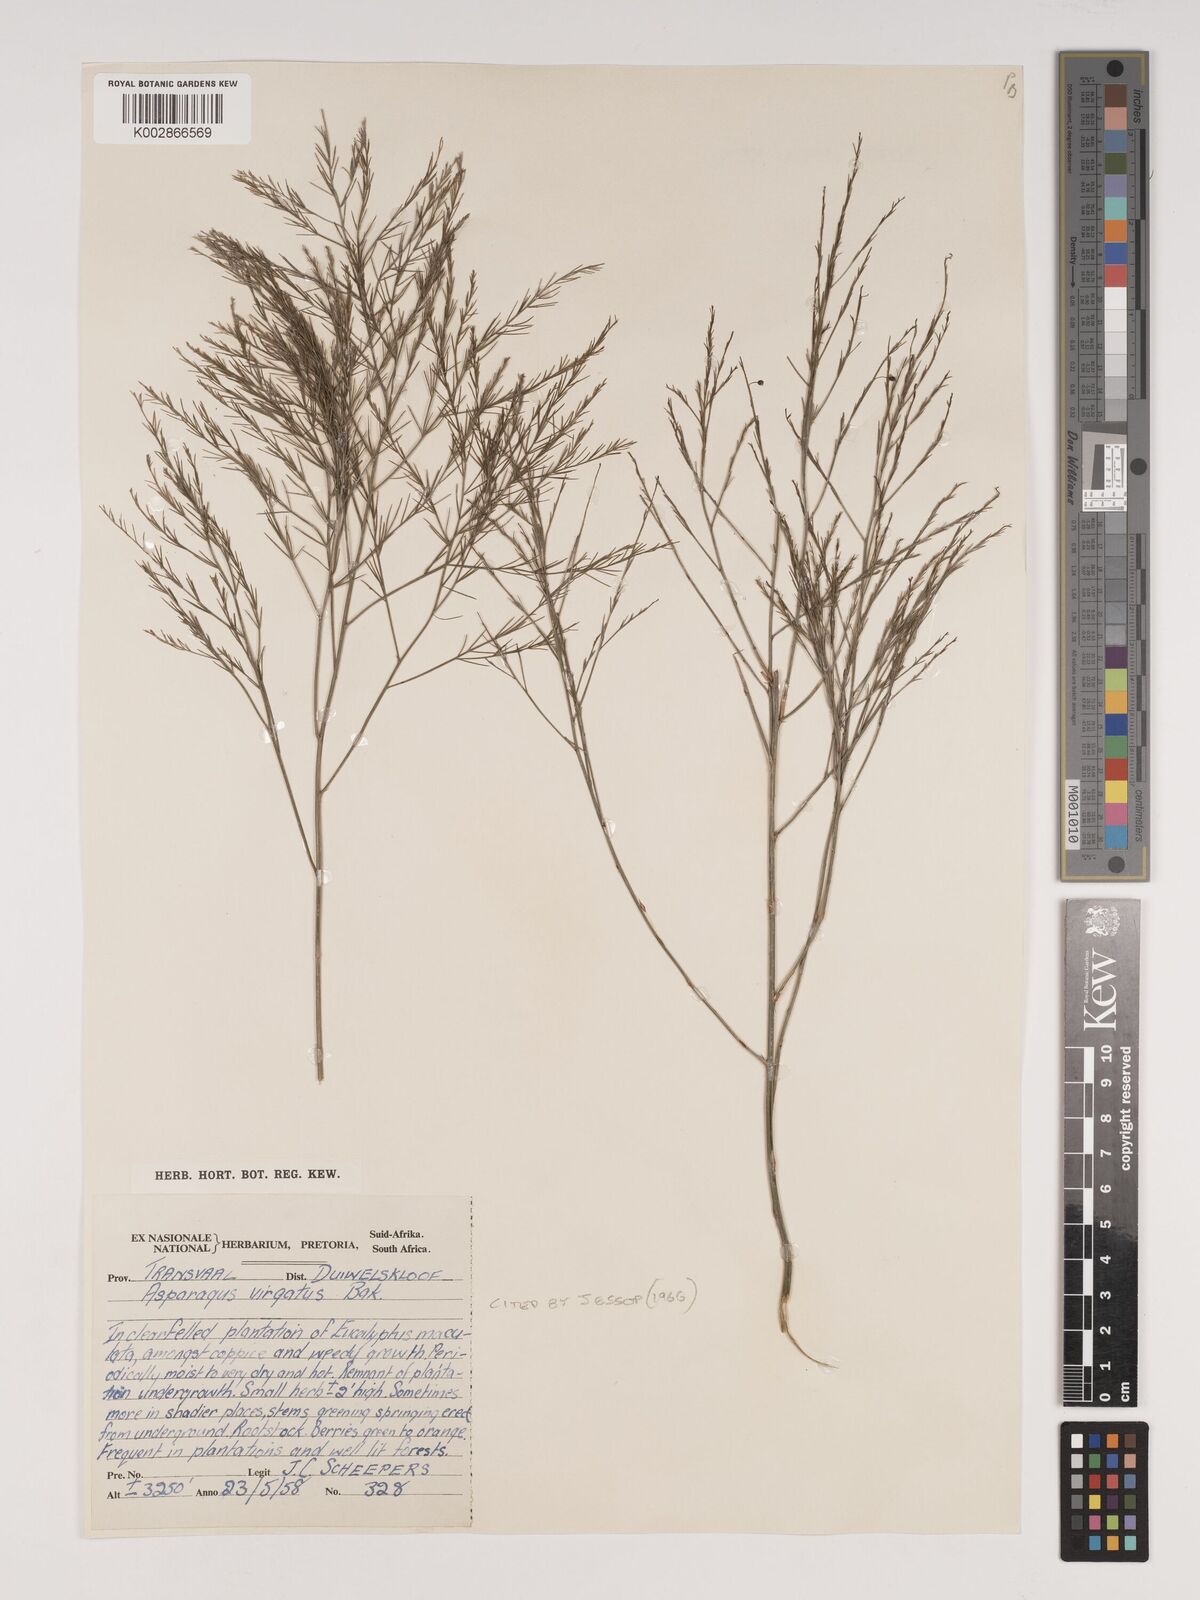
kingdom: Plantae
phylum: Tracheophyta
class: Liliopsida
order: Asparagales
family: Asparagaceae
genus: Asparagus
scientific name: Asparagus virgatus
